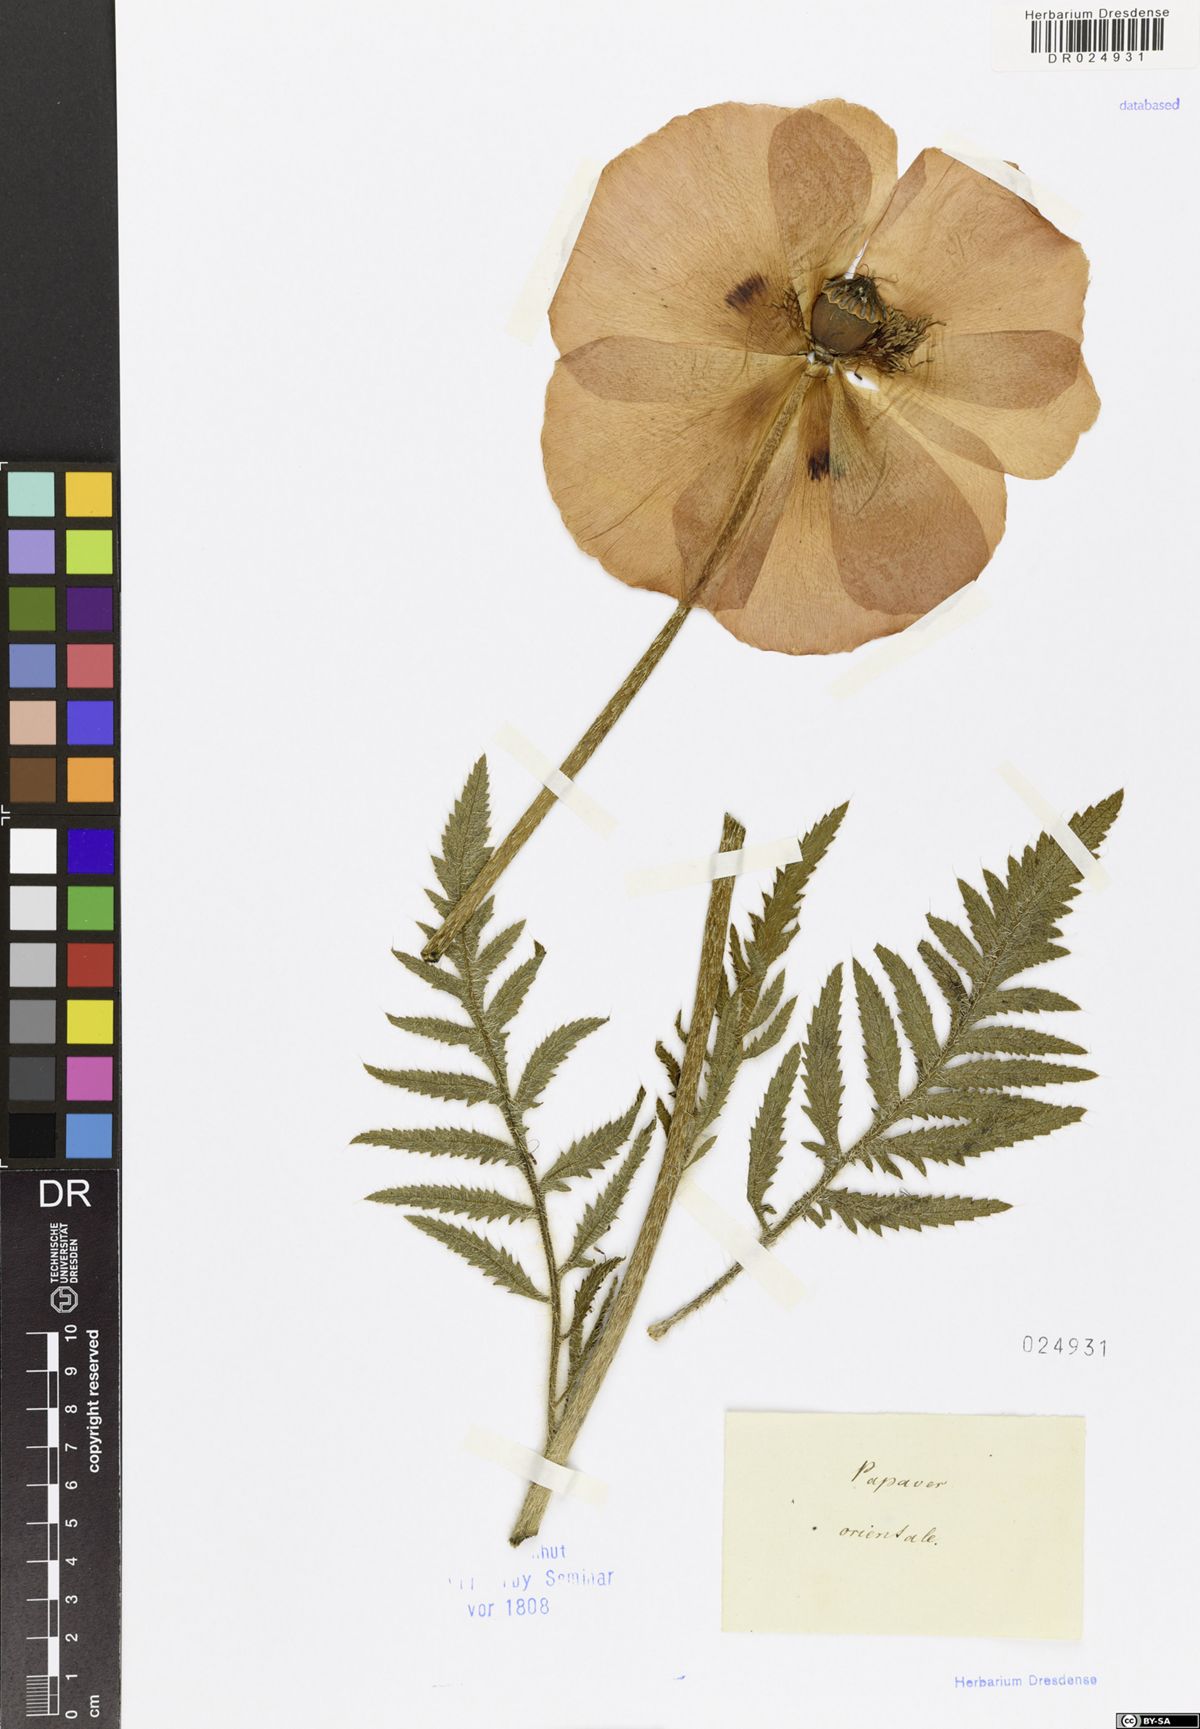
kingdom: Plantae
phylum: Tracheophyta
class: Magnoliopsida
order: Ranunculales
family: Papaveraceae
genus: Papaver
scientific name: Papaver orientale
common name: Oriental poppy
